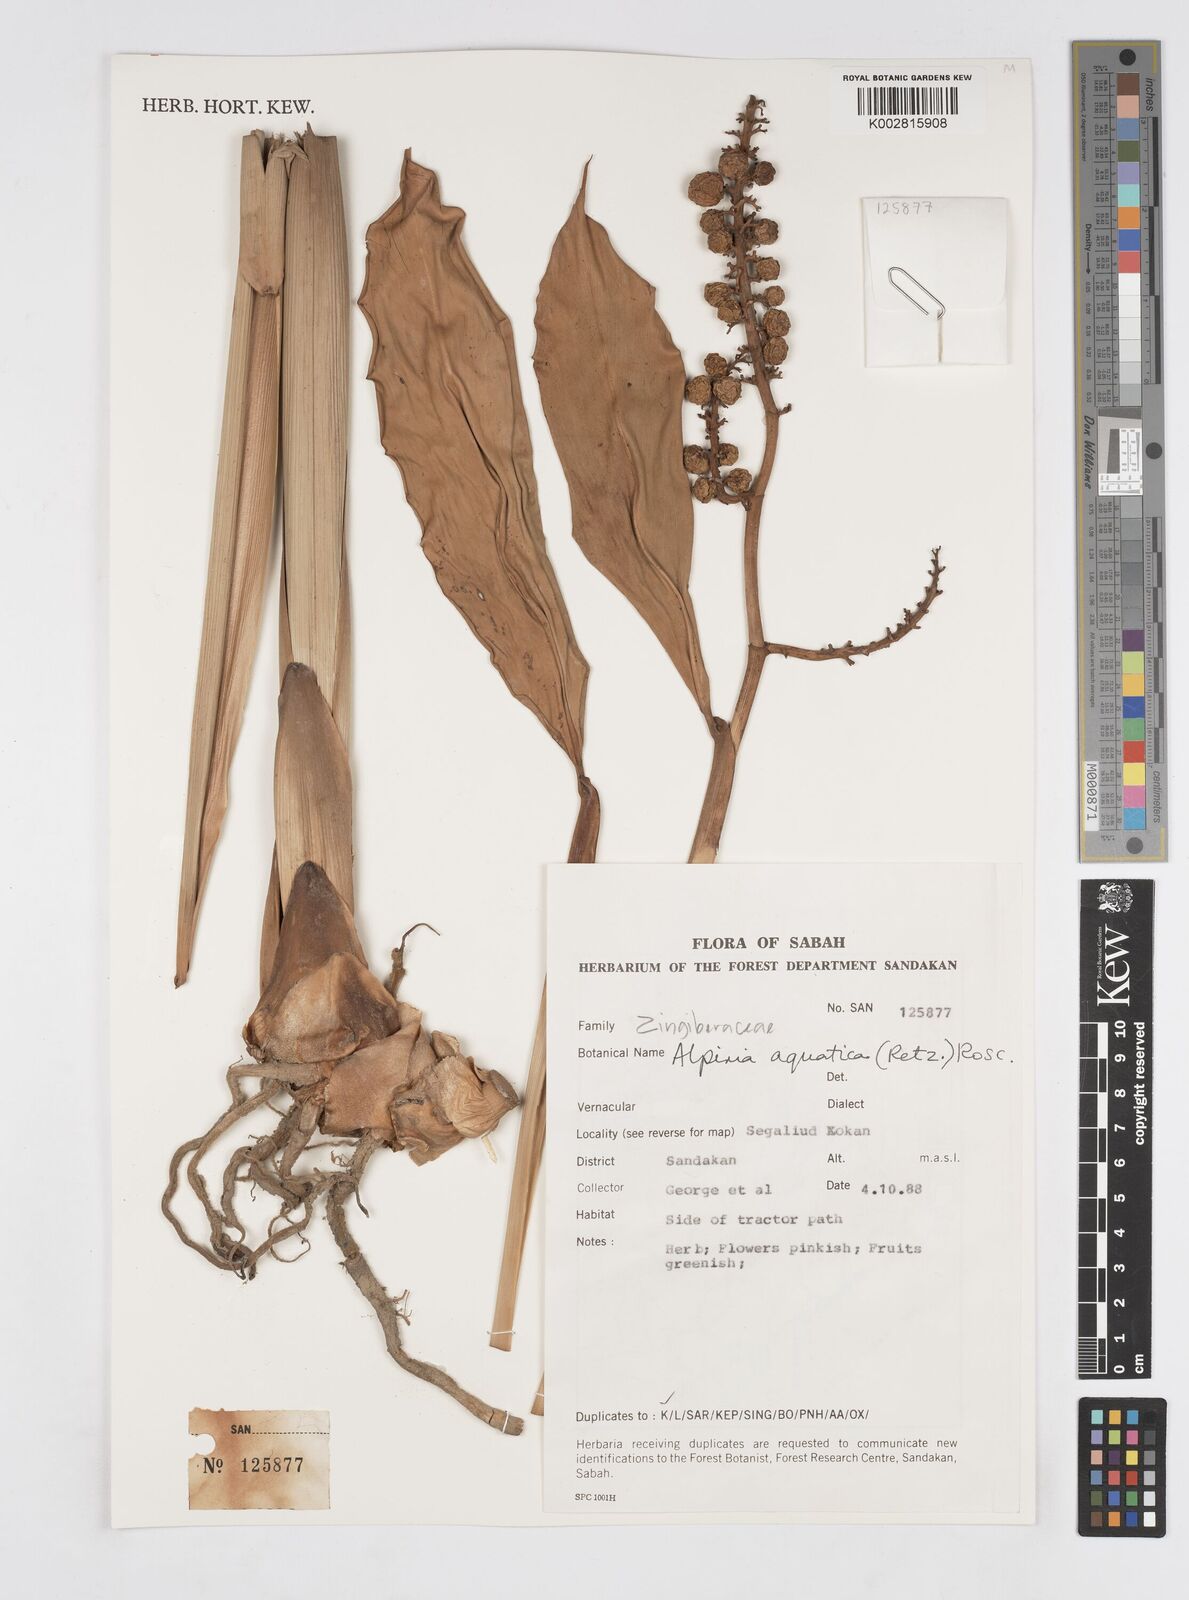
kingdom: Plantae
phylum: Tracheophyta
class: Liliopsida
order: Zingiberales
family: Zingiberaceae
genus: Alpinia
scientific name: Alpinia aquatica
